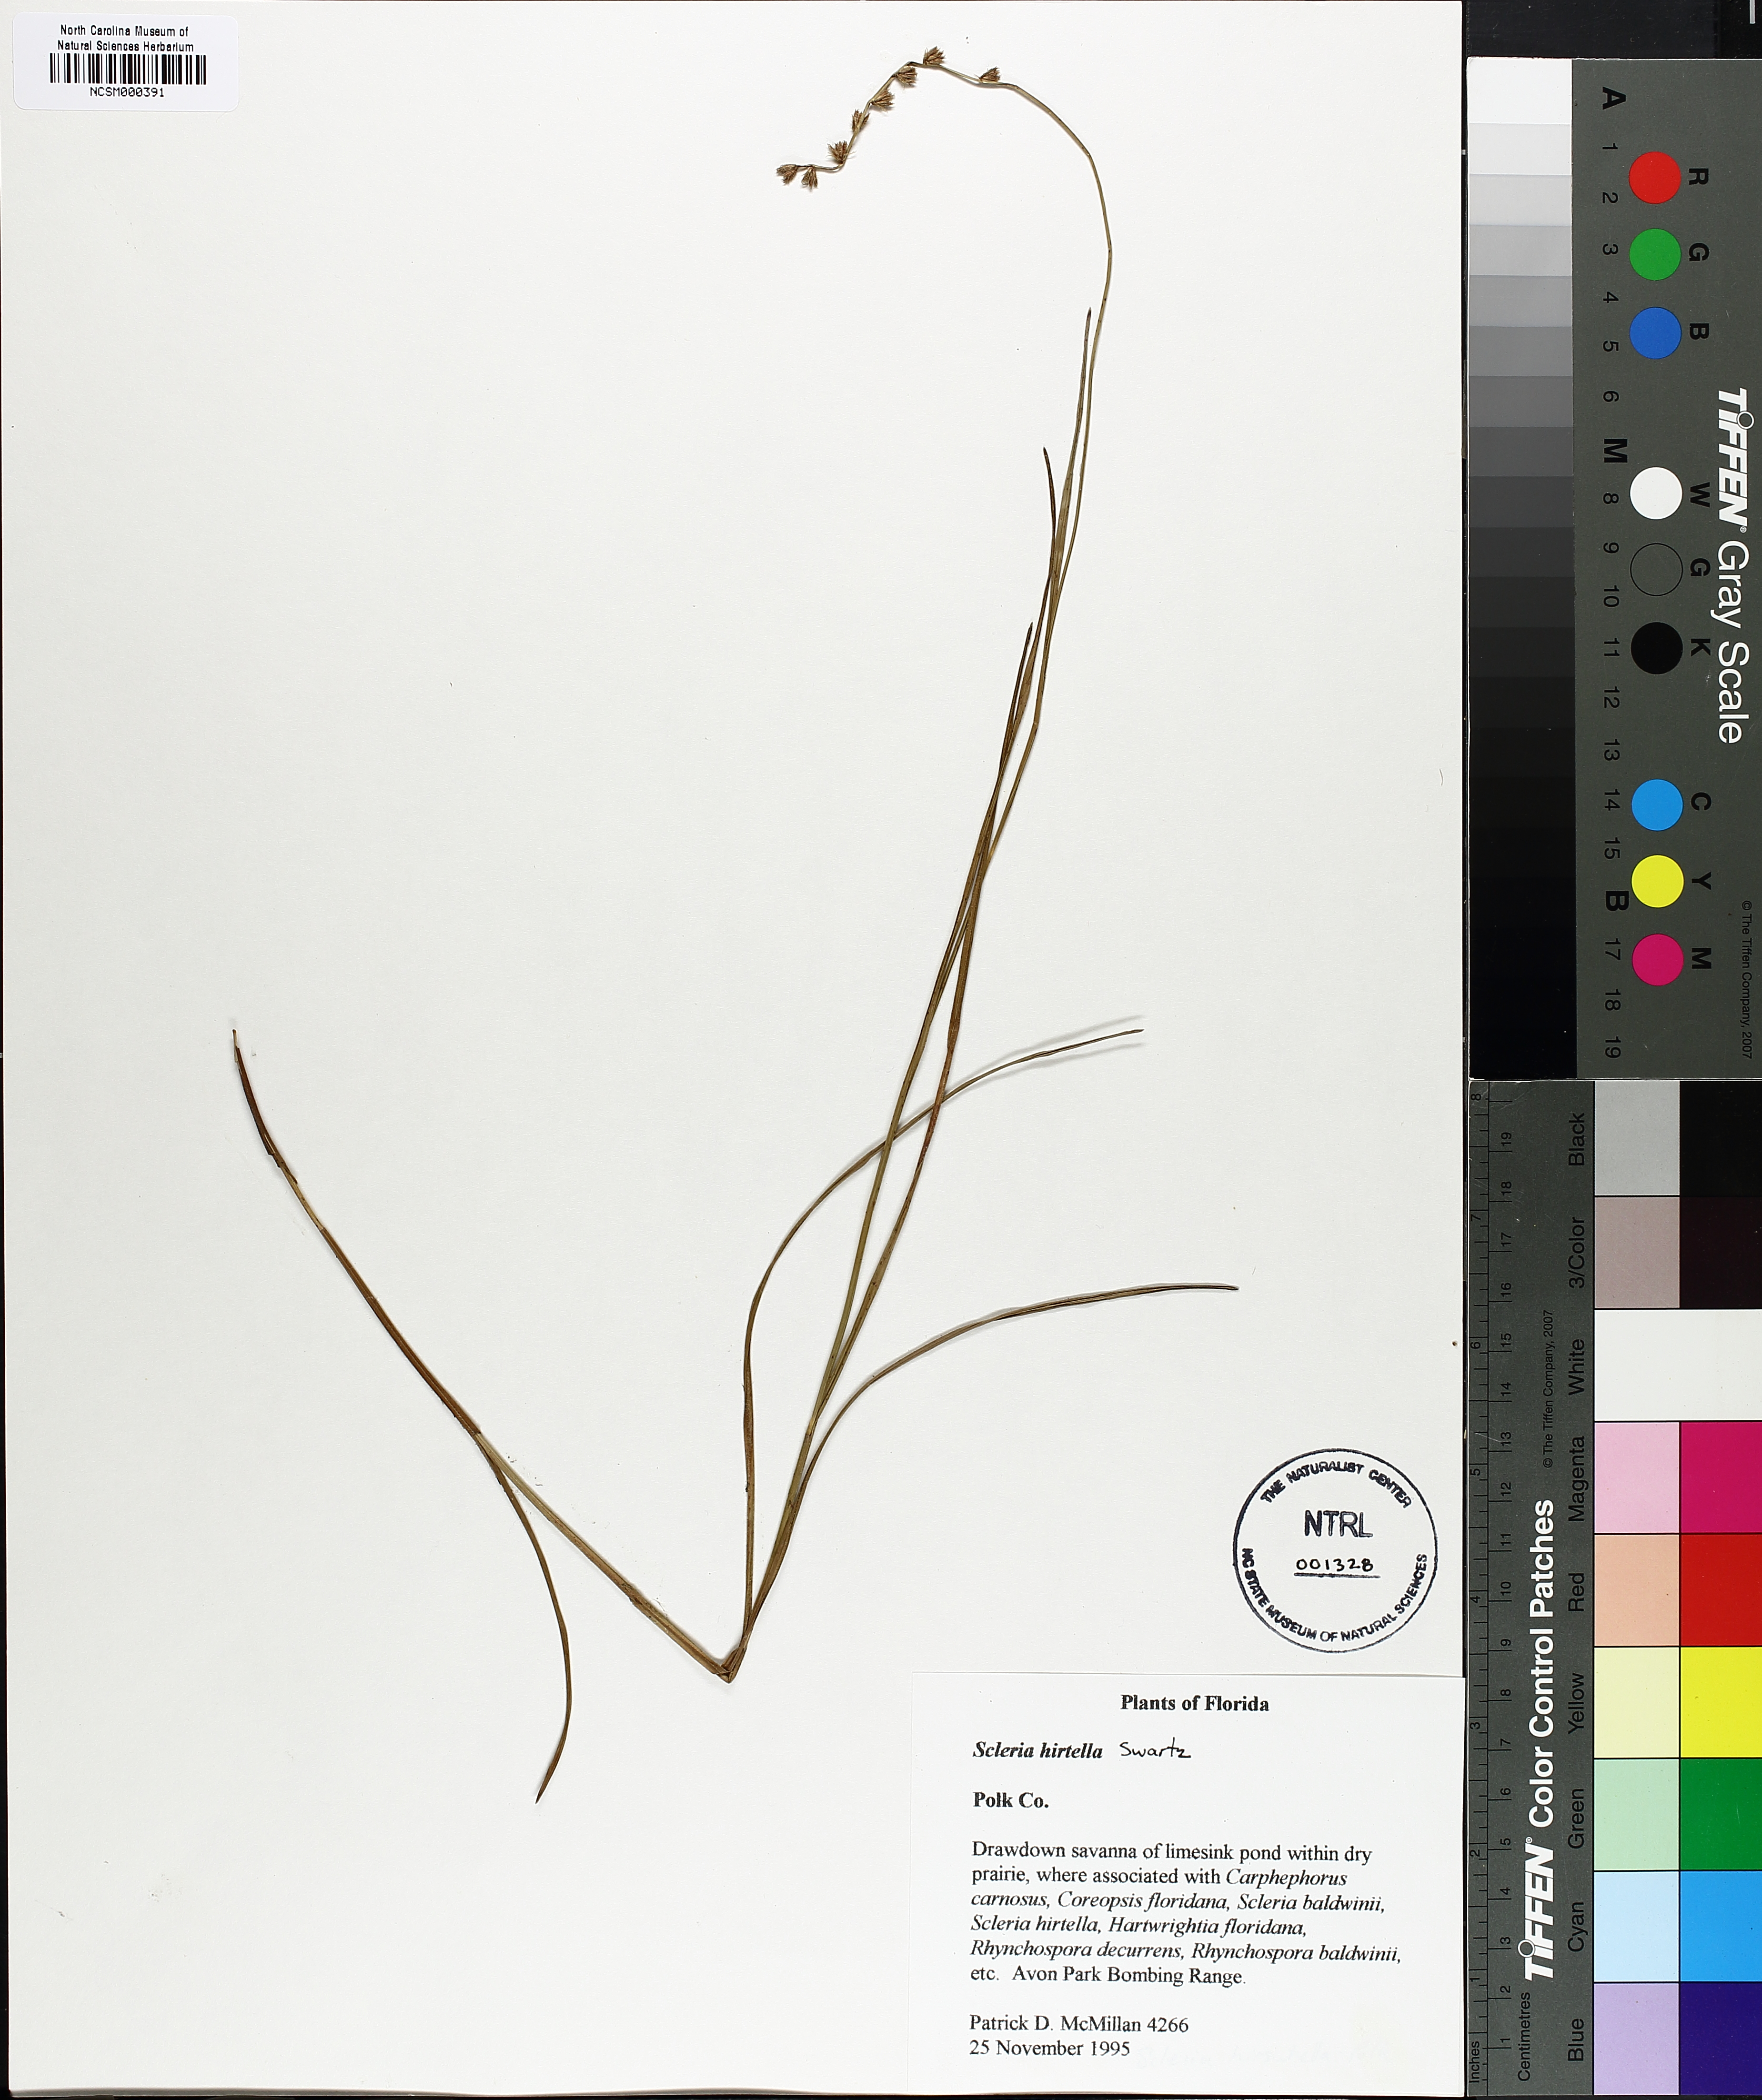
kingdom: Plantae
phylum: Tracheophyta
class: Liliopsida
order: Poales
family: Cyperaceae
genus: Scleria
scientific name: Scleria hirtella
